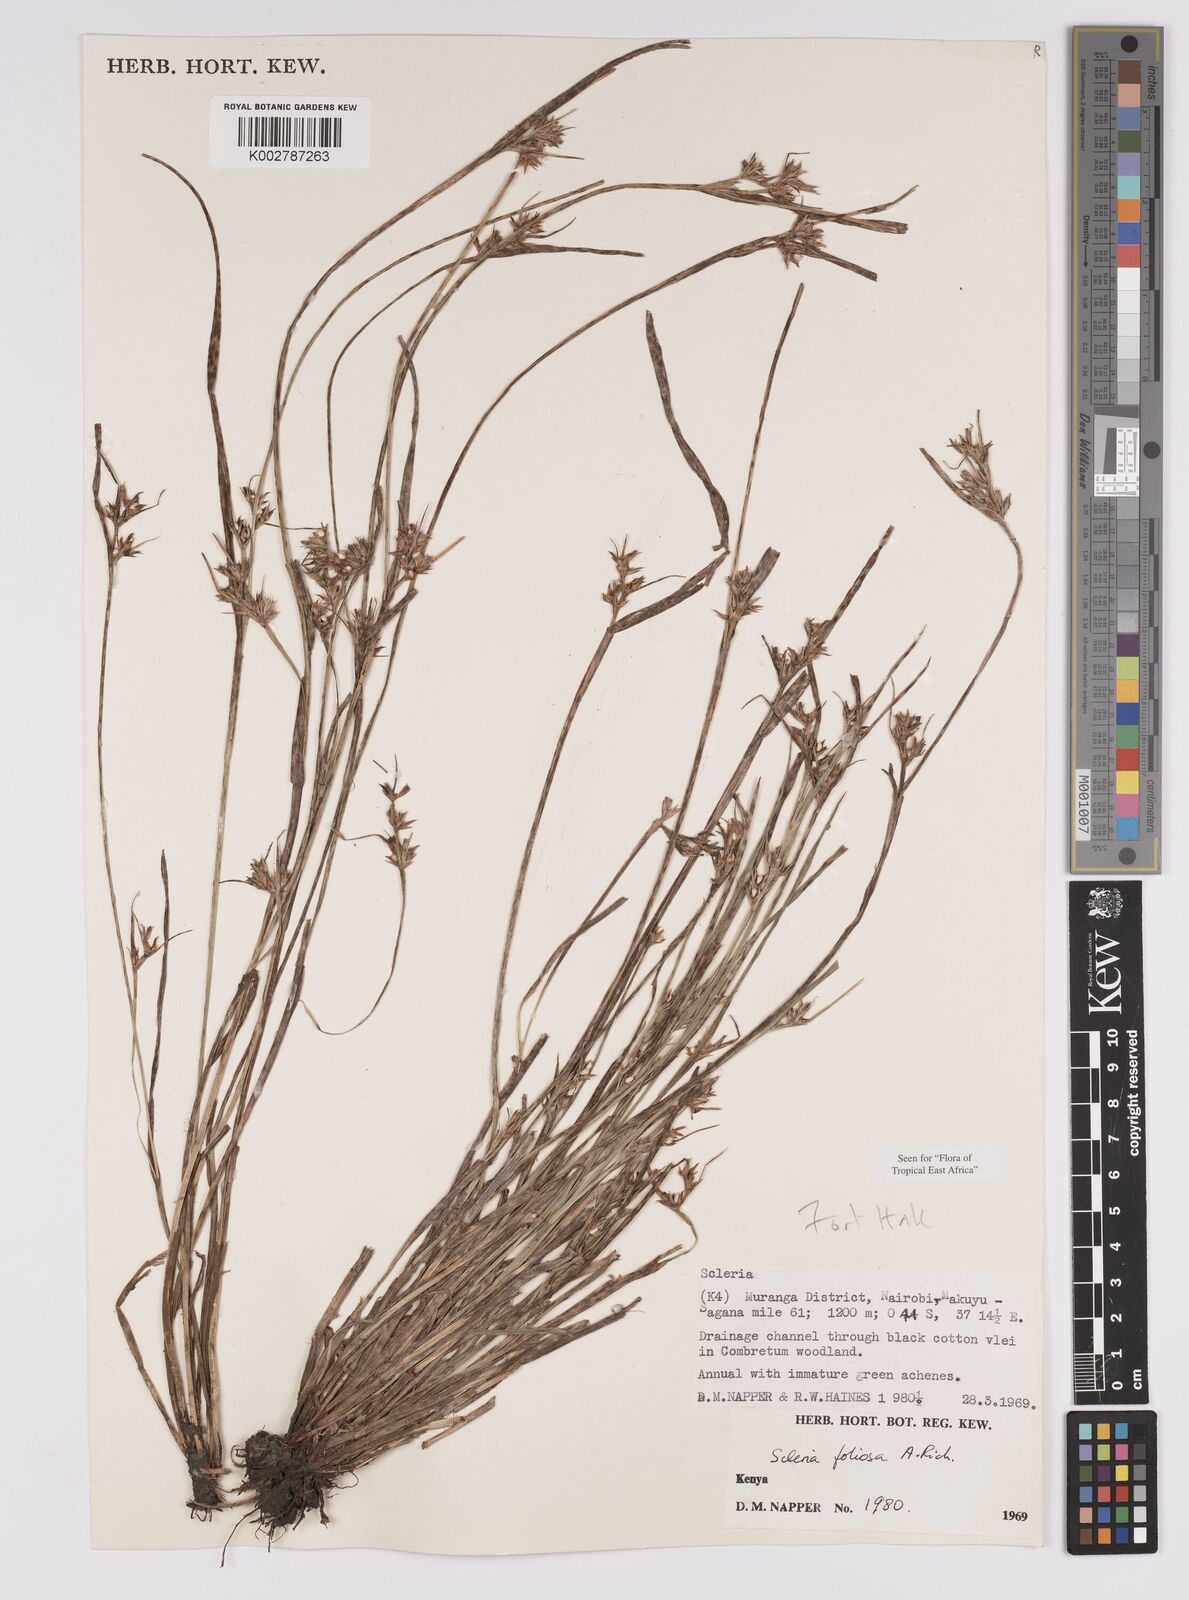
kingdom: Plantae
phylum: Tracheophyta
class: Liliopsida
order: Poales
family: Cyperaceae
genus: Scleria
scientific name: Scleria foliosa
